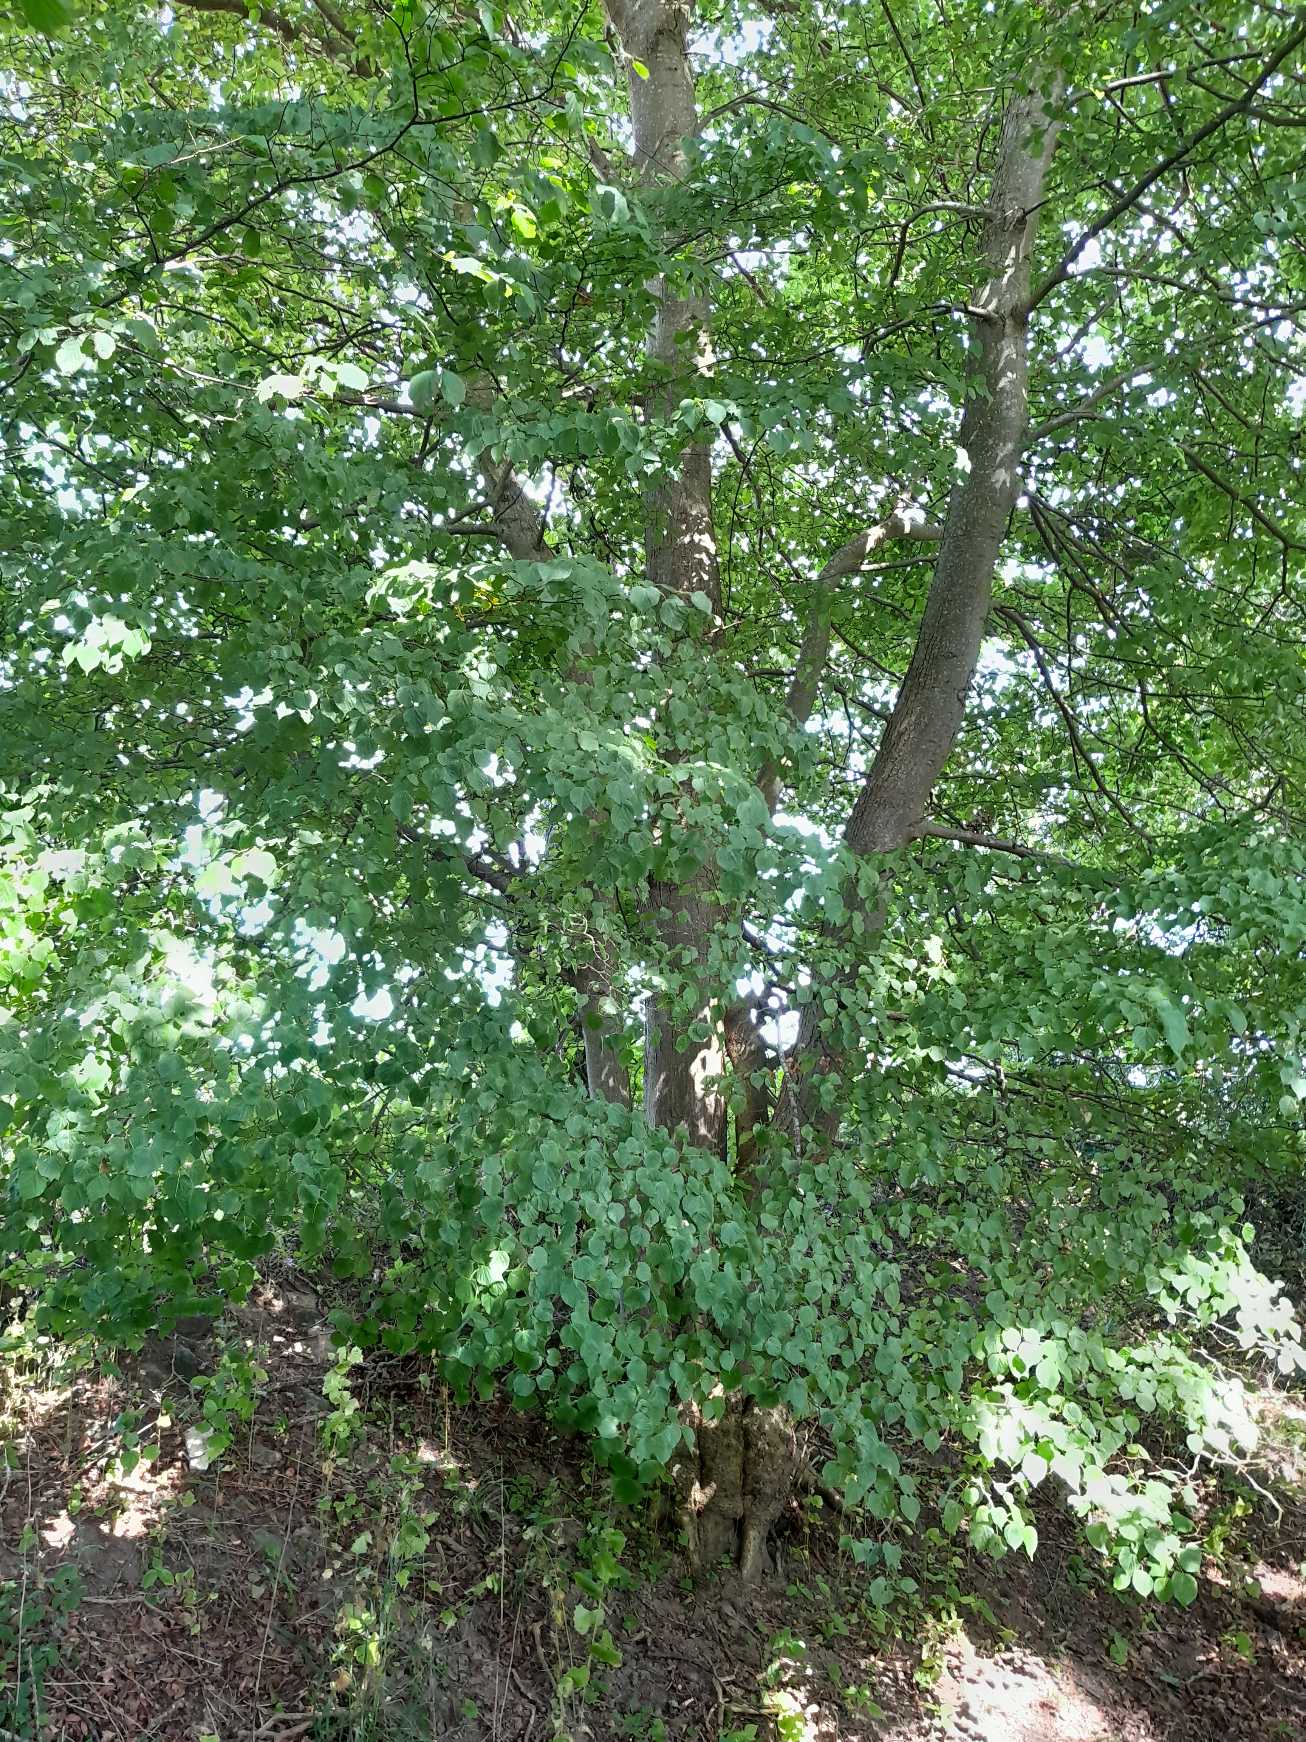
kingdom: Plantae
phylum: Tracheophyta
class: Magnoliopsida
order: Malvales
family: Malvaceae
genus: Tilia
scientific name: Tilia cordata
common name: Småbladet lind
